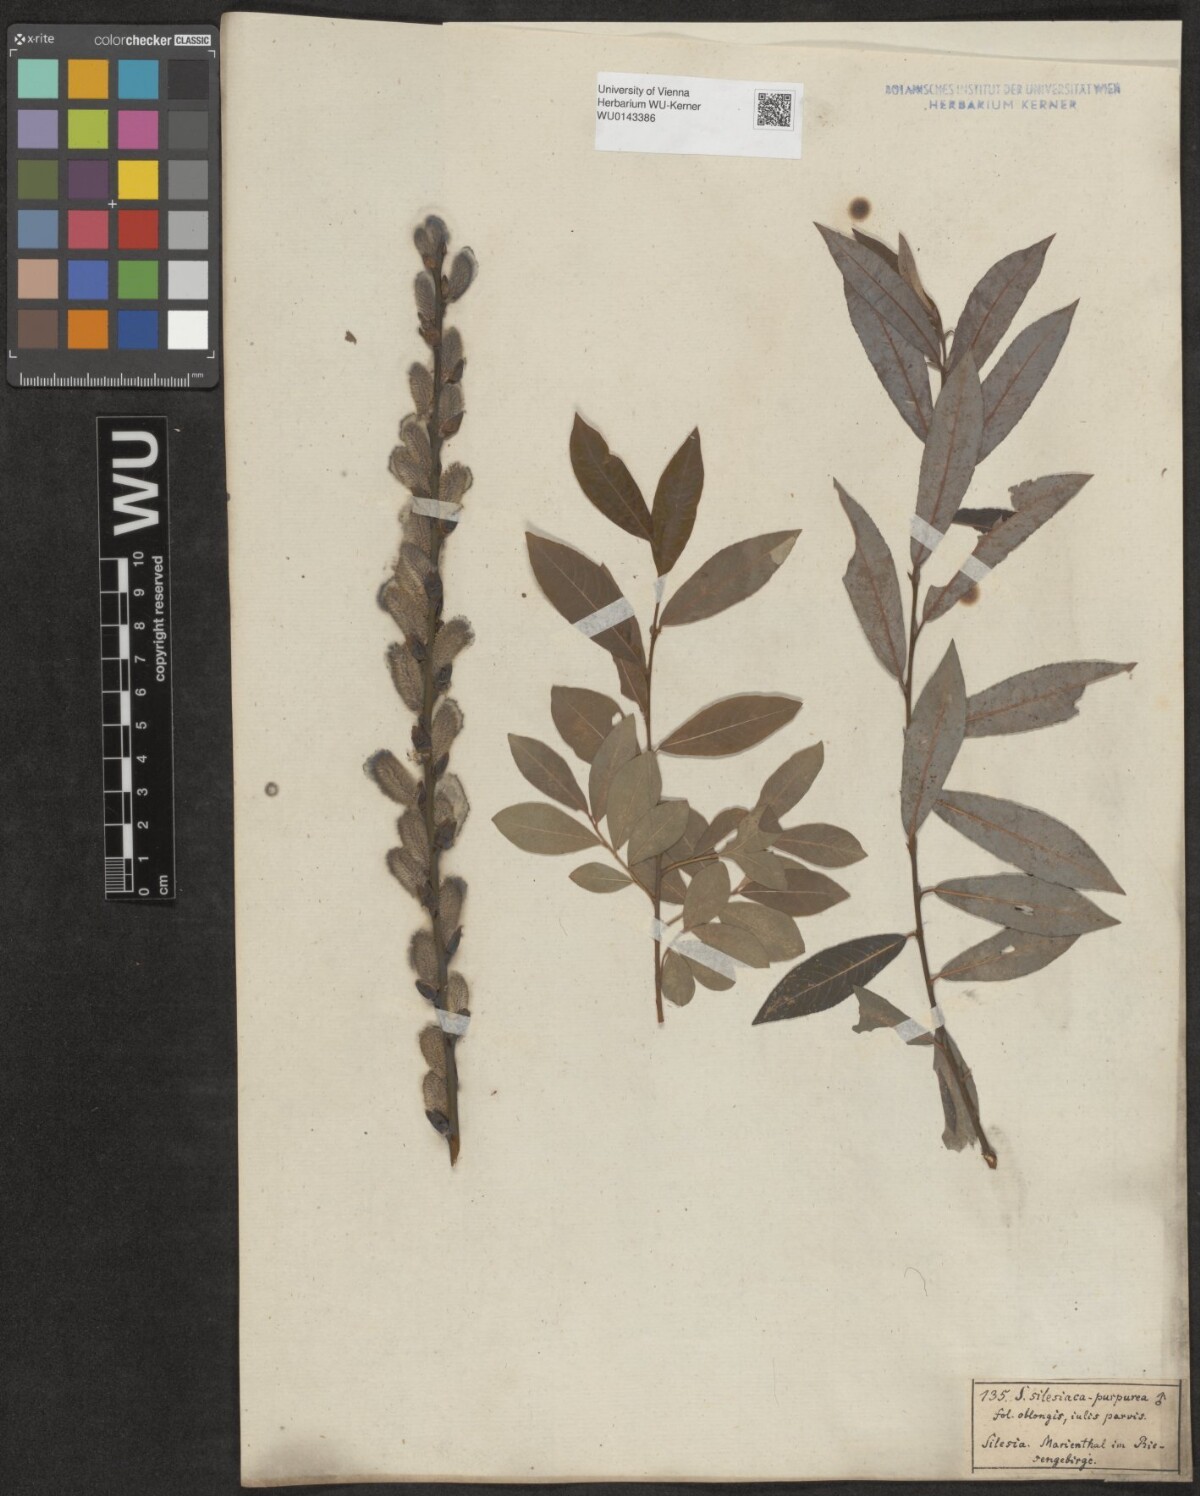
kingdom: Plantae
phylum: Tracheophyta
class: Magnoliopsida
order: Malpighiales
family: Salicaceae
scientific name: Salicaceae
